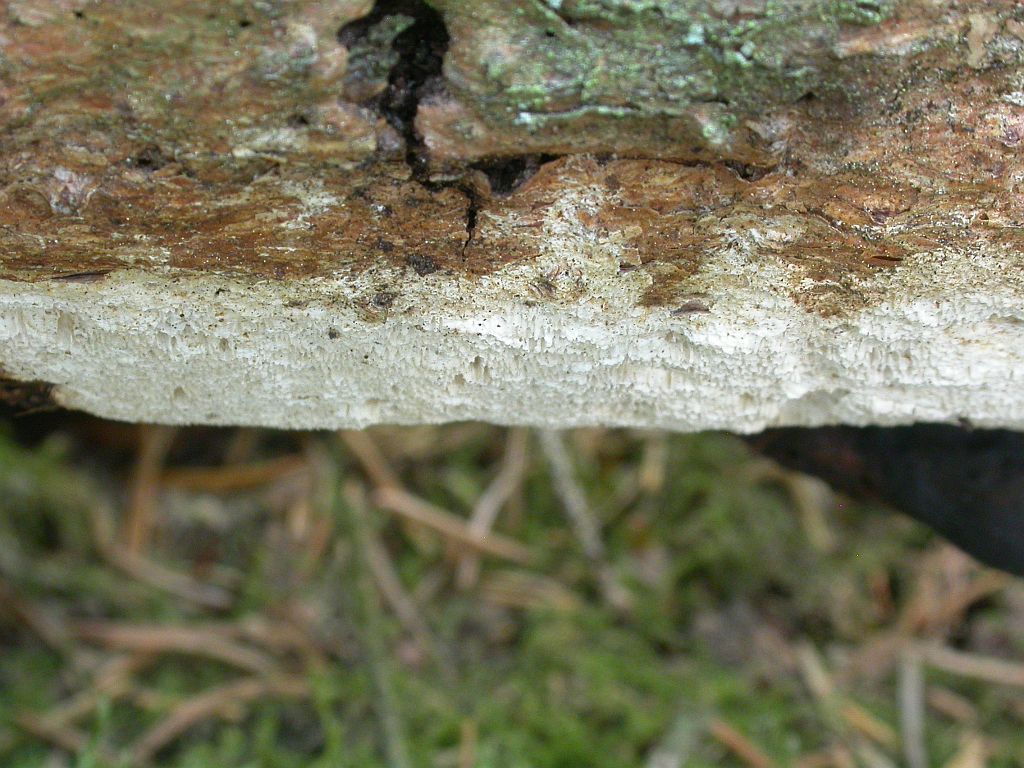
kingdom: Fungi
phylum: Basidiomycota
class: Agaricomycetes
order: Polyporales
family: Fomitopsidaceae
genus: Antrodia
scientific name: Antrodia sinuosa
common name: tømmer-sejporesvamp
